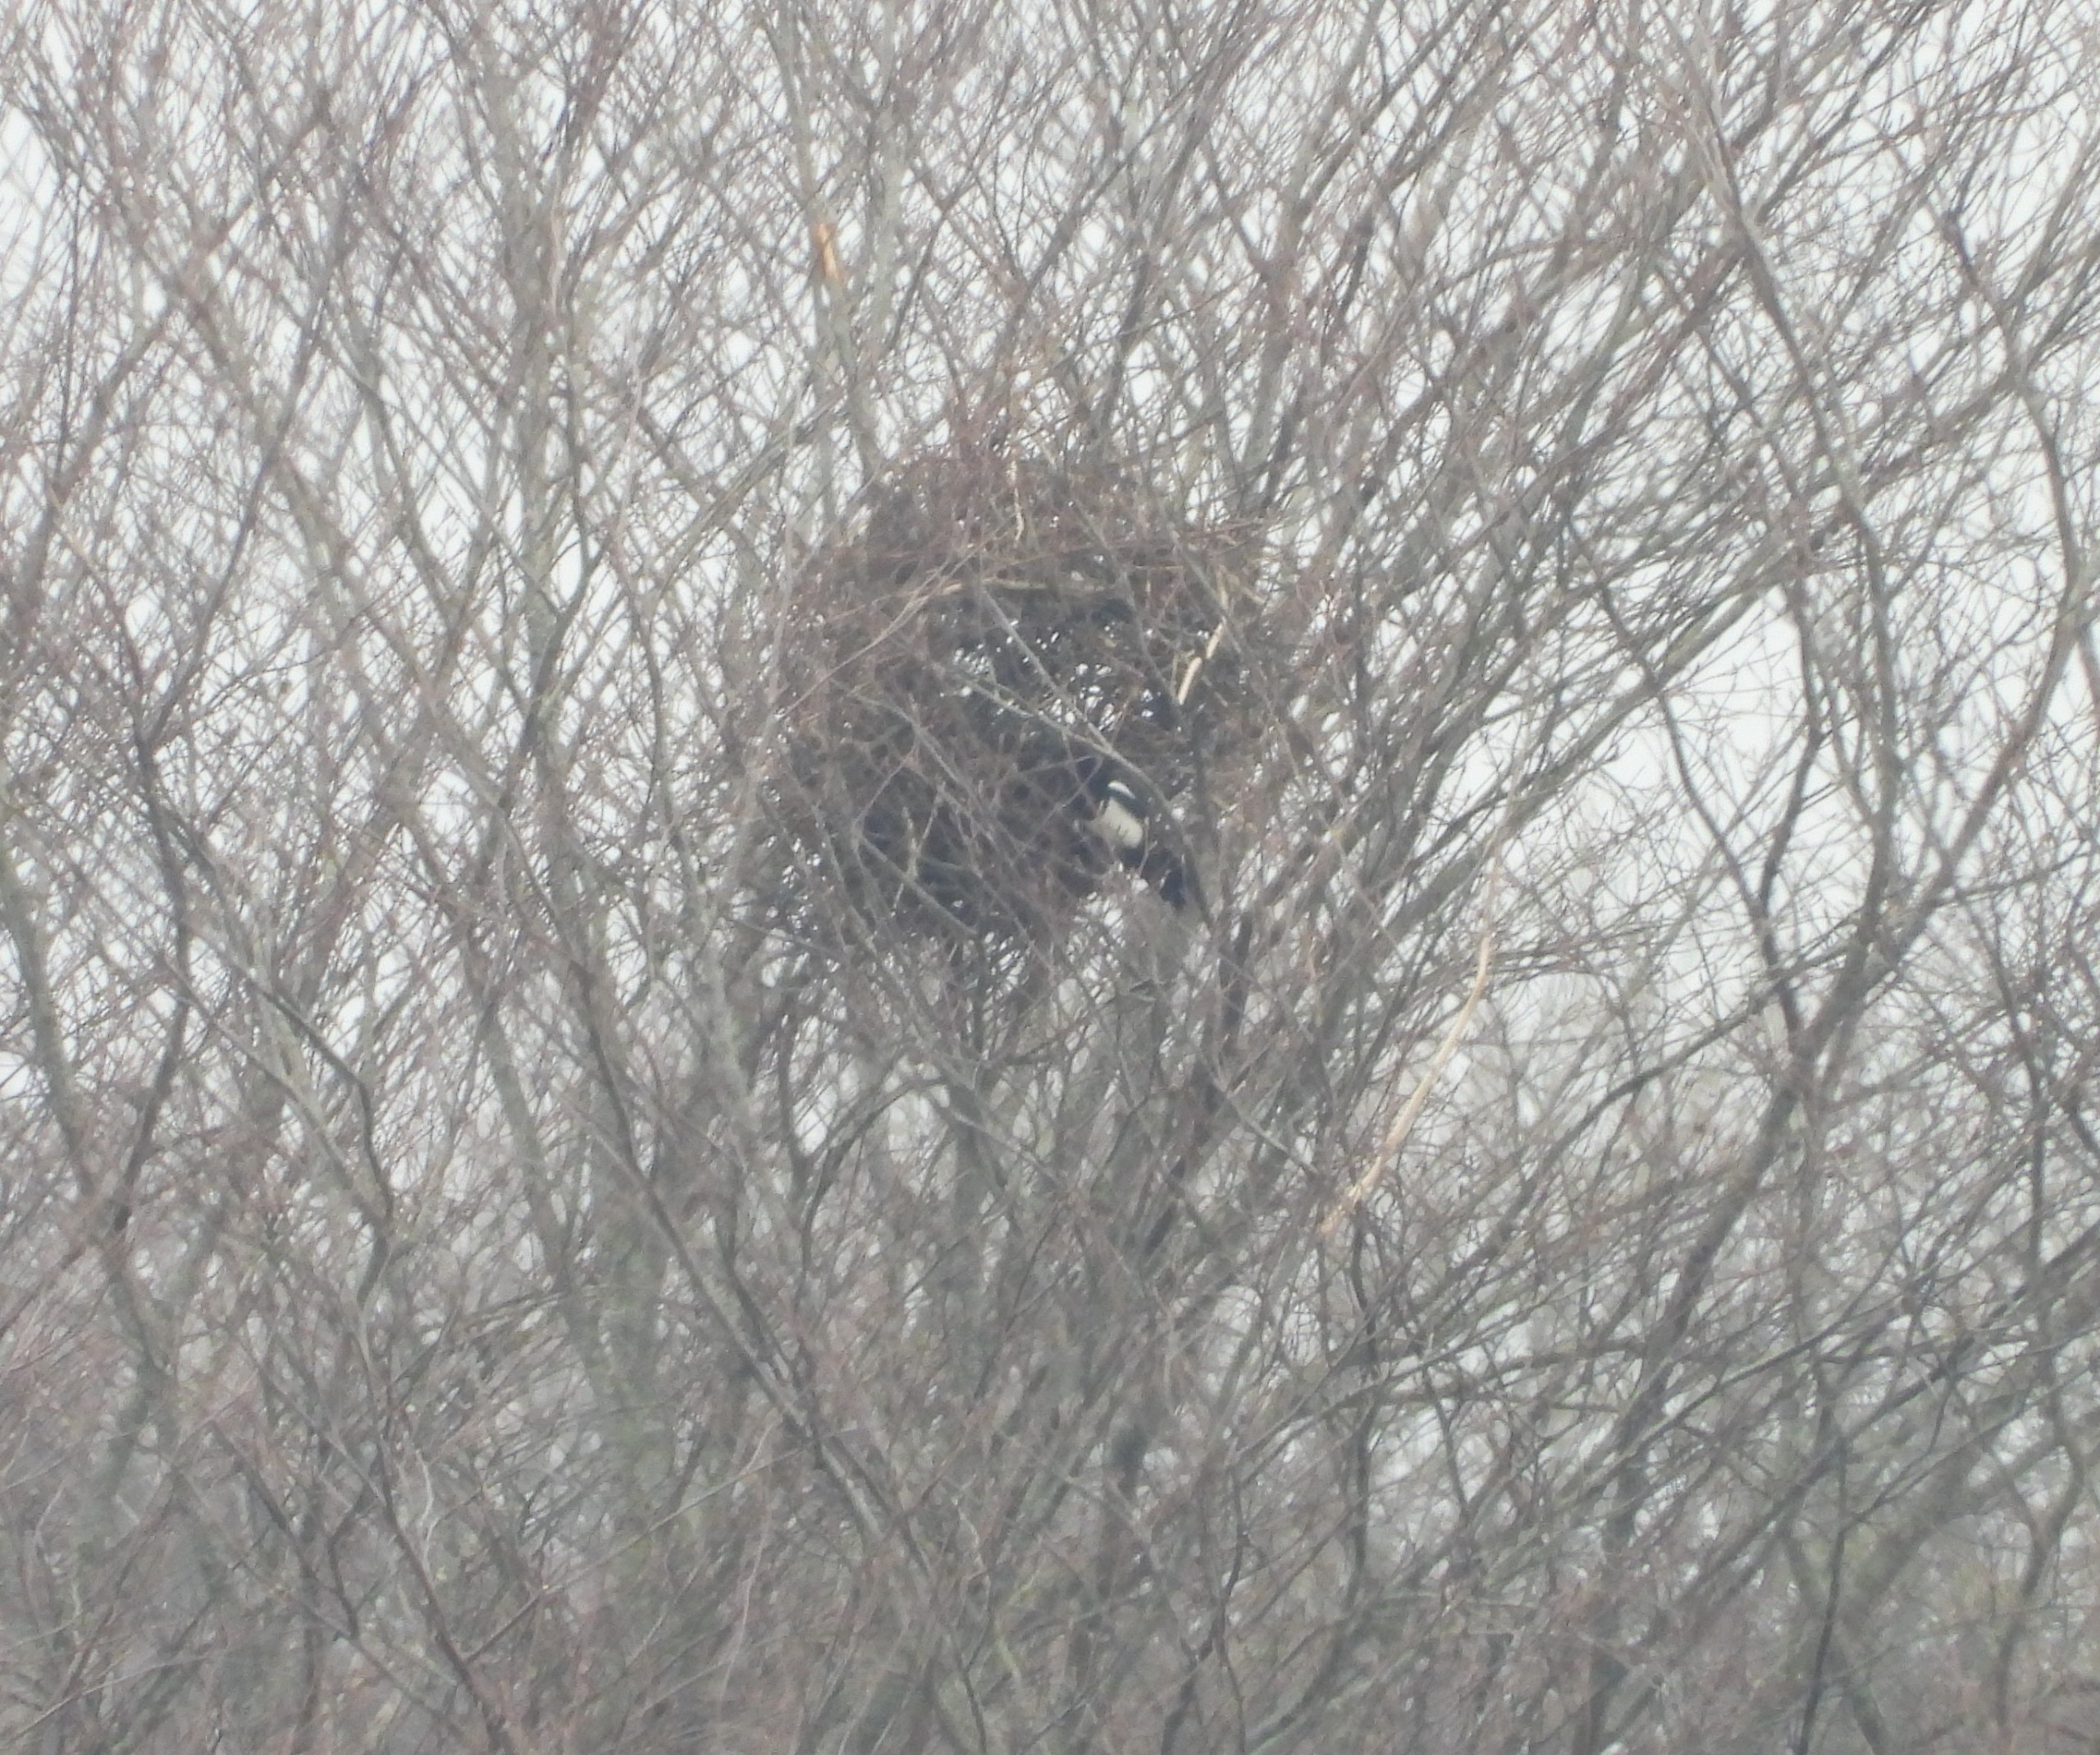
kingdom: Animalia
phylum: Chordata
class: Aves
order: Passeriformes
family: Corvidae
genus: Pica
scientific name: Pica pica
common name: Husskade
